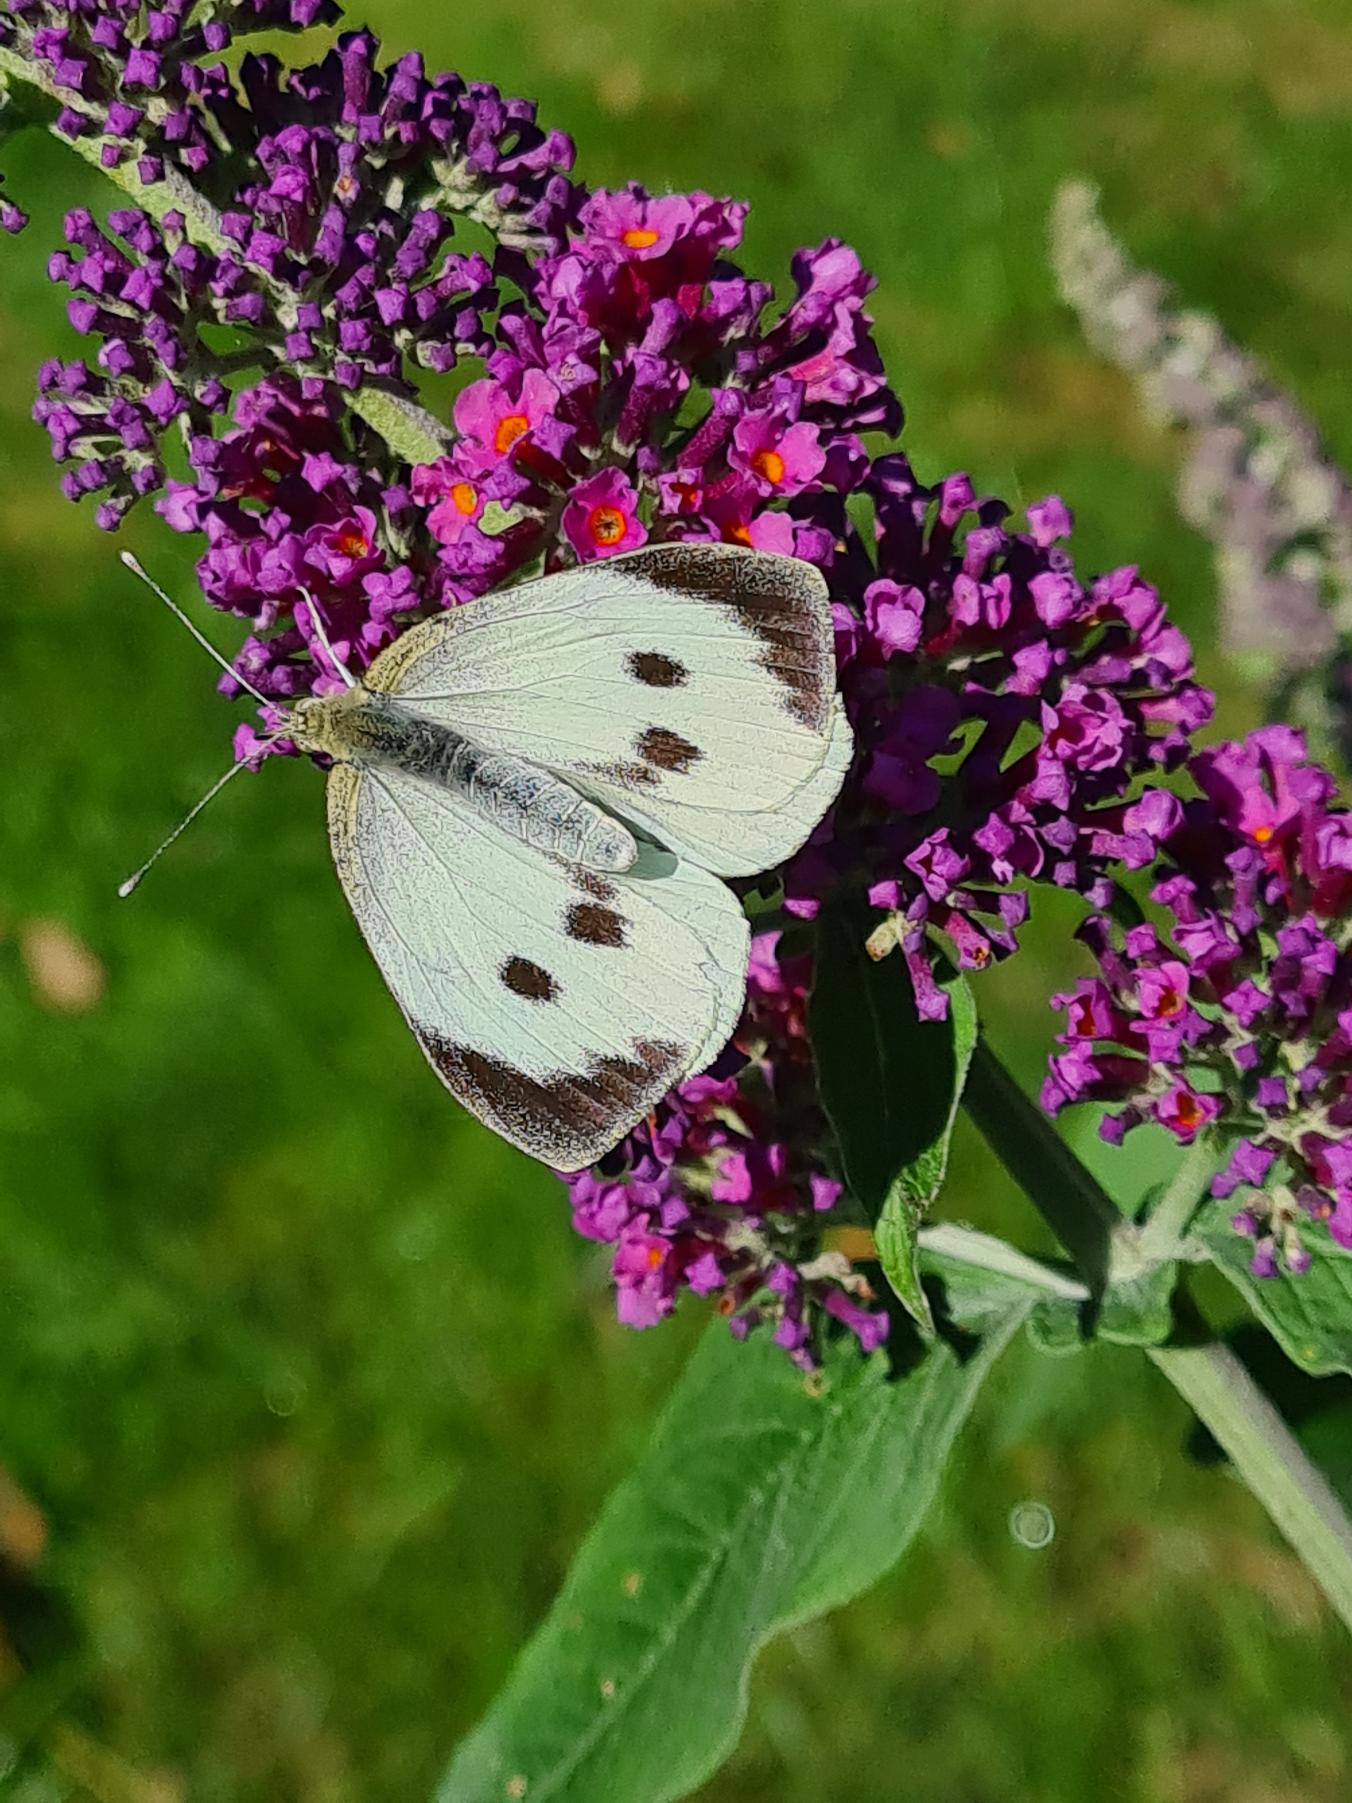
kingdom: Animalia
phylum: Arthropoda
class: Insecta
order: Lepidoptera
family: Pieridae
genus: Pieris
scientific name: Pieris brassicae
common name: Stor kålsommerfugl
